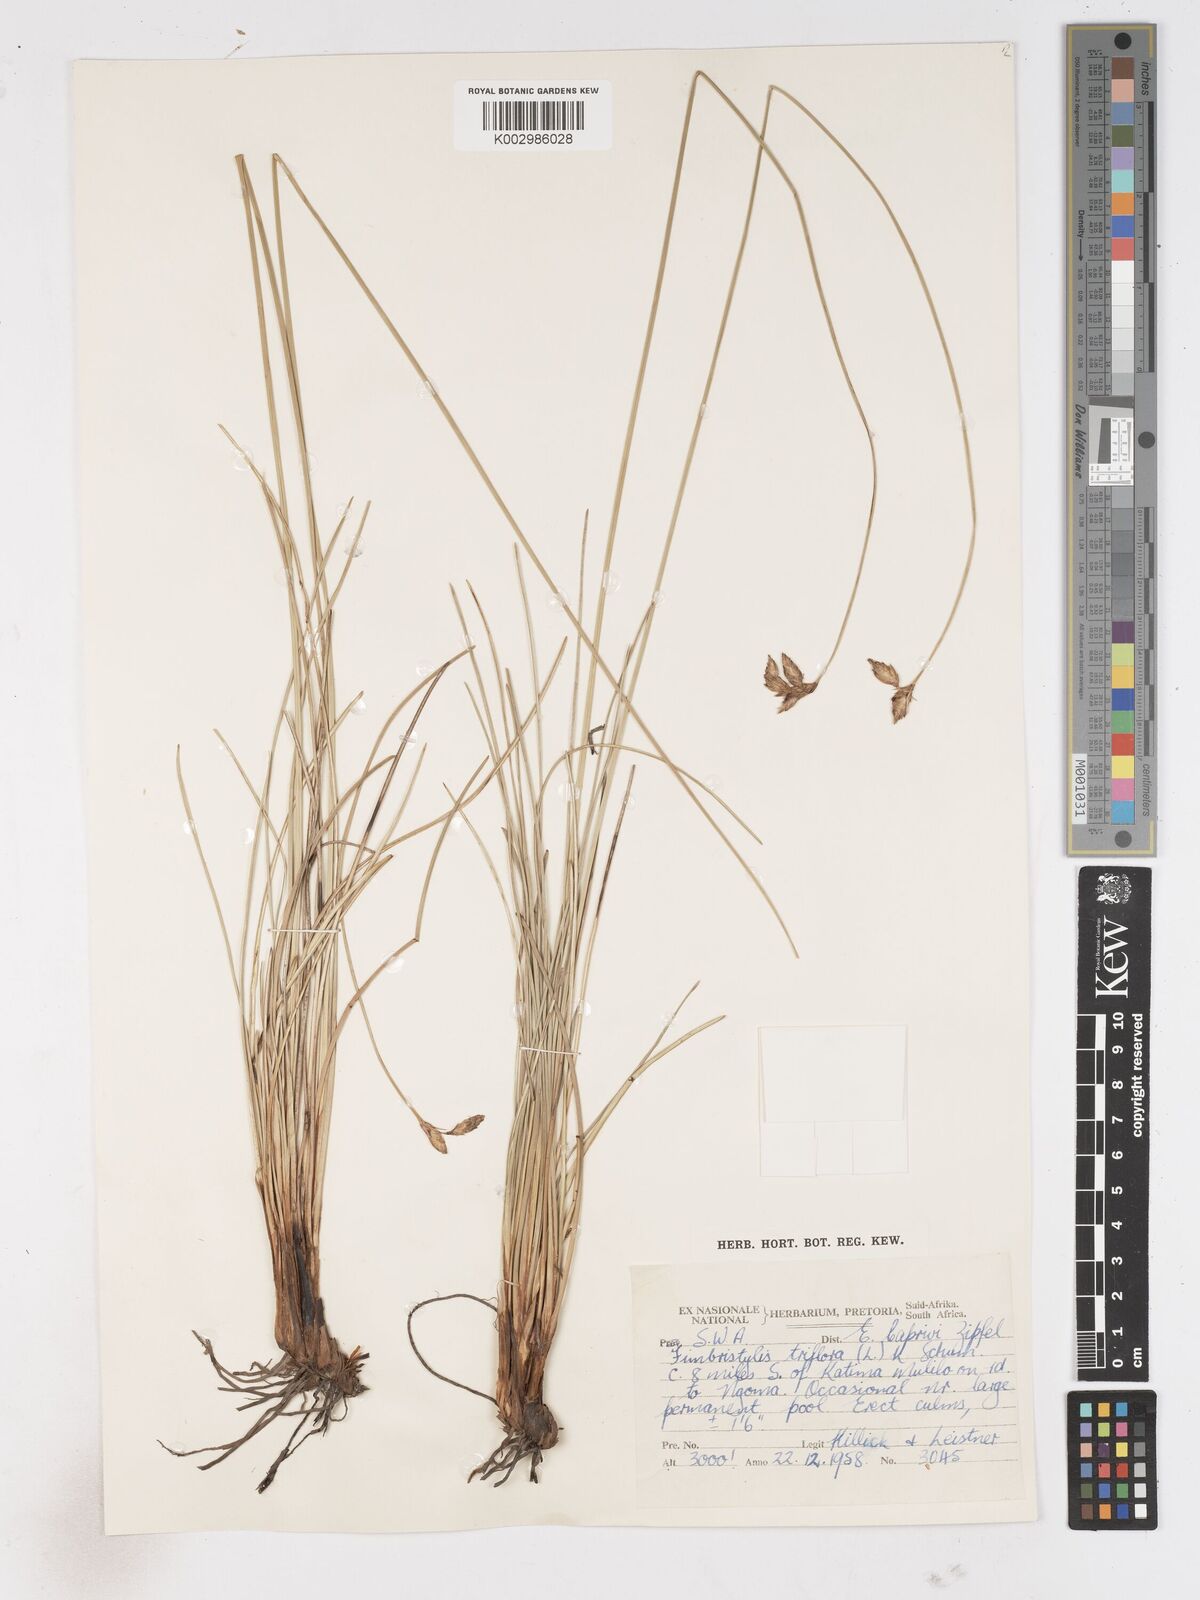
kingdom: Plantae
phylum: Tracheophyta
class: Liliopsida
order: Poales
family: Cyperaceae
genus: Abildgaardia
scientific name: Abildgaardia triflora
